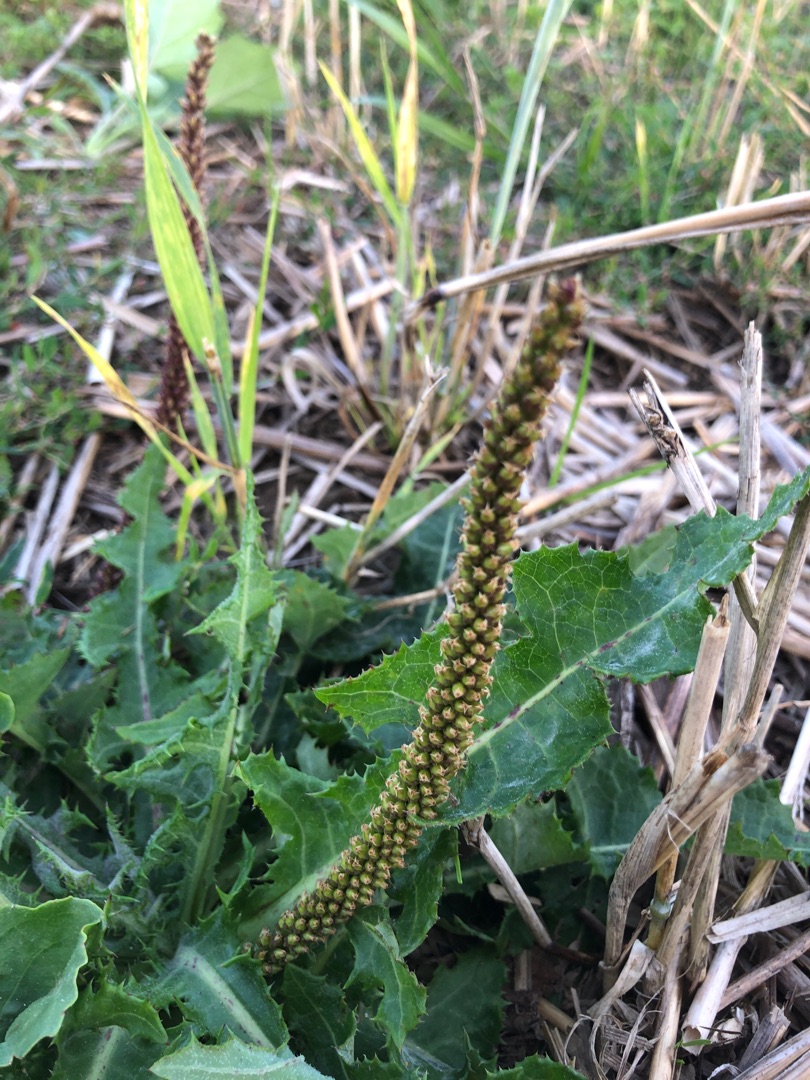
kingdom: Plantae
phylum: Tracheophyta
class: Magnoliopsida
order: Asterales
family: Asteraceae
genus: Sonchus
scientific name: Sonchus arvensis
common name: Ager-svinemælk
